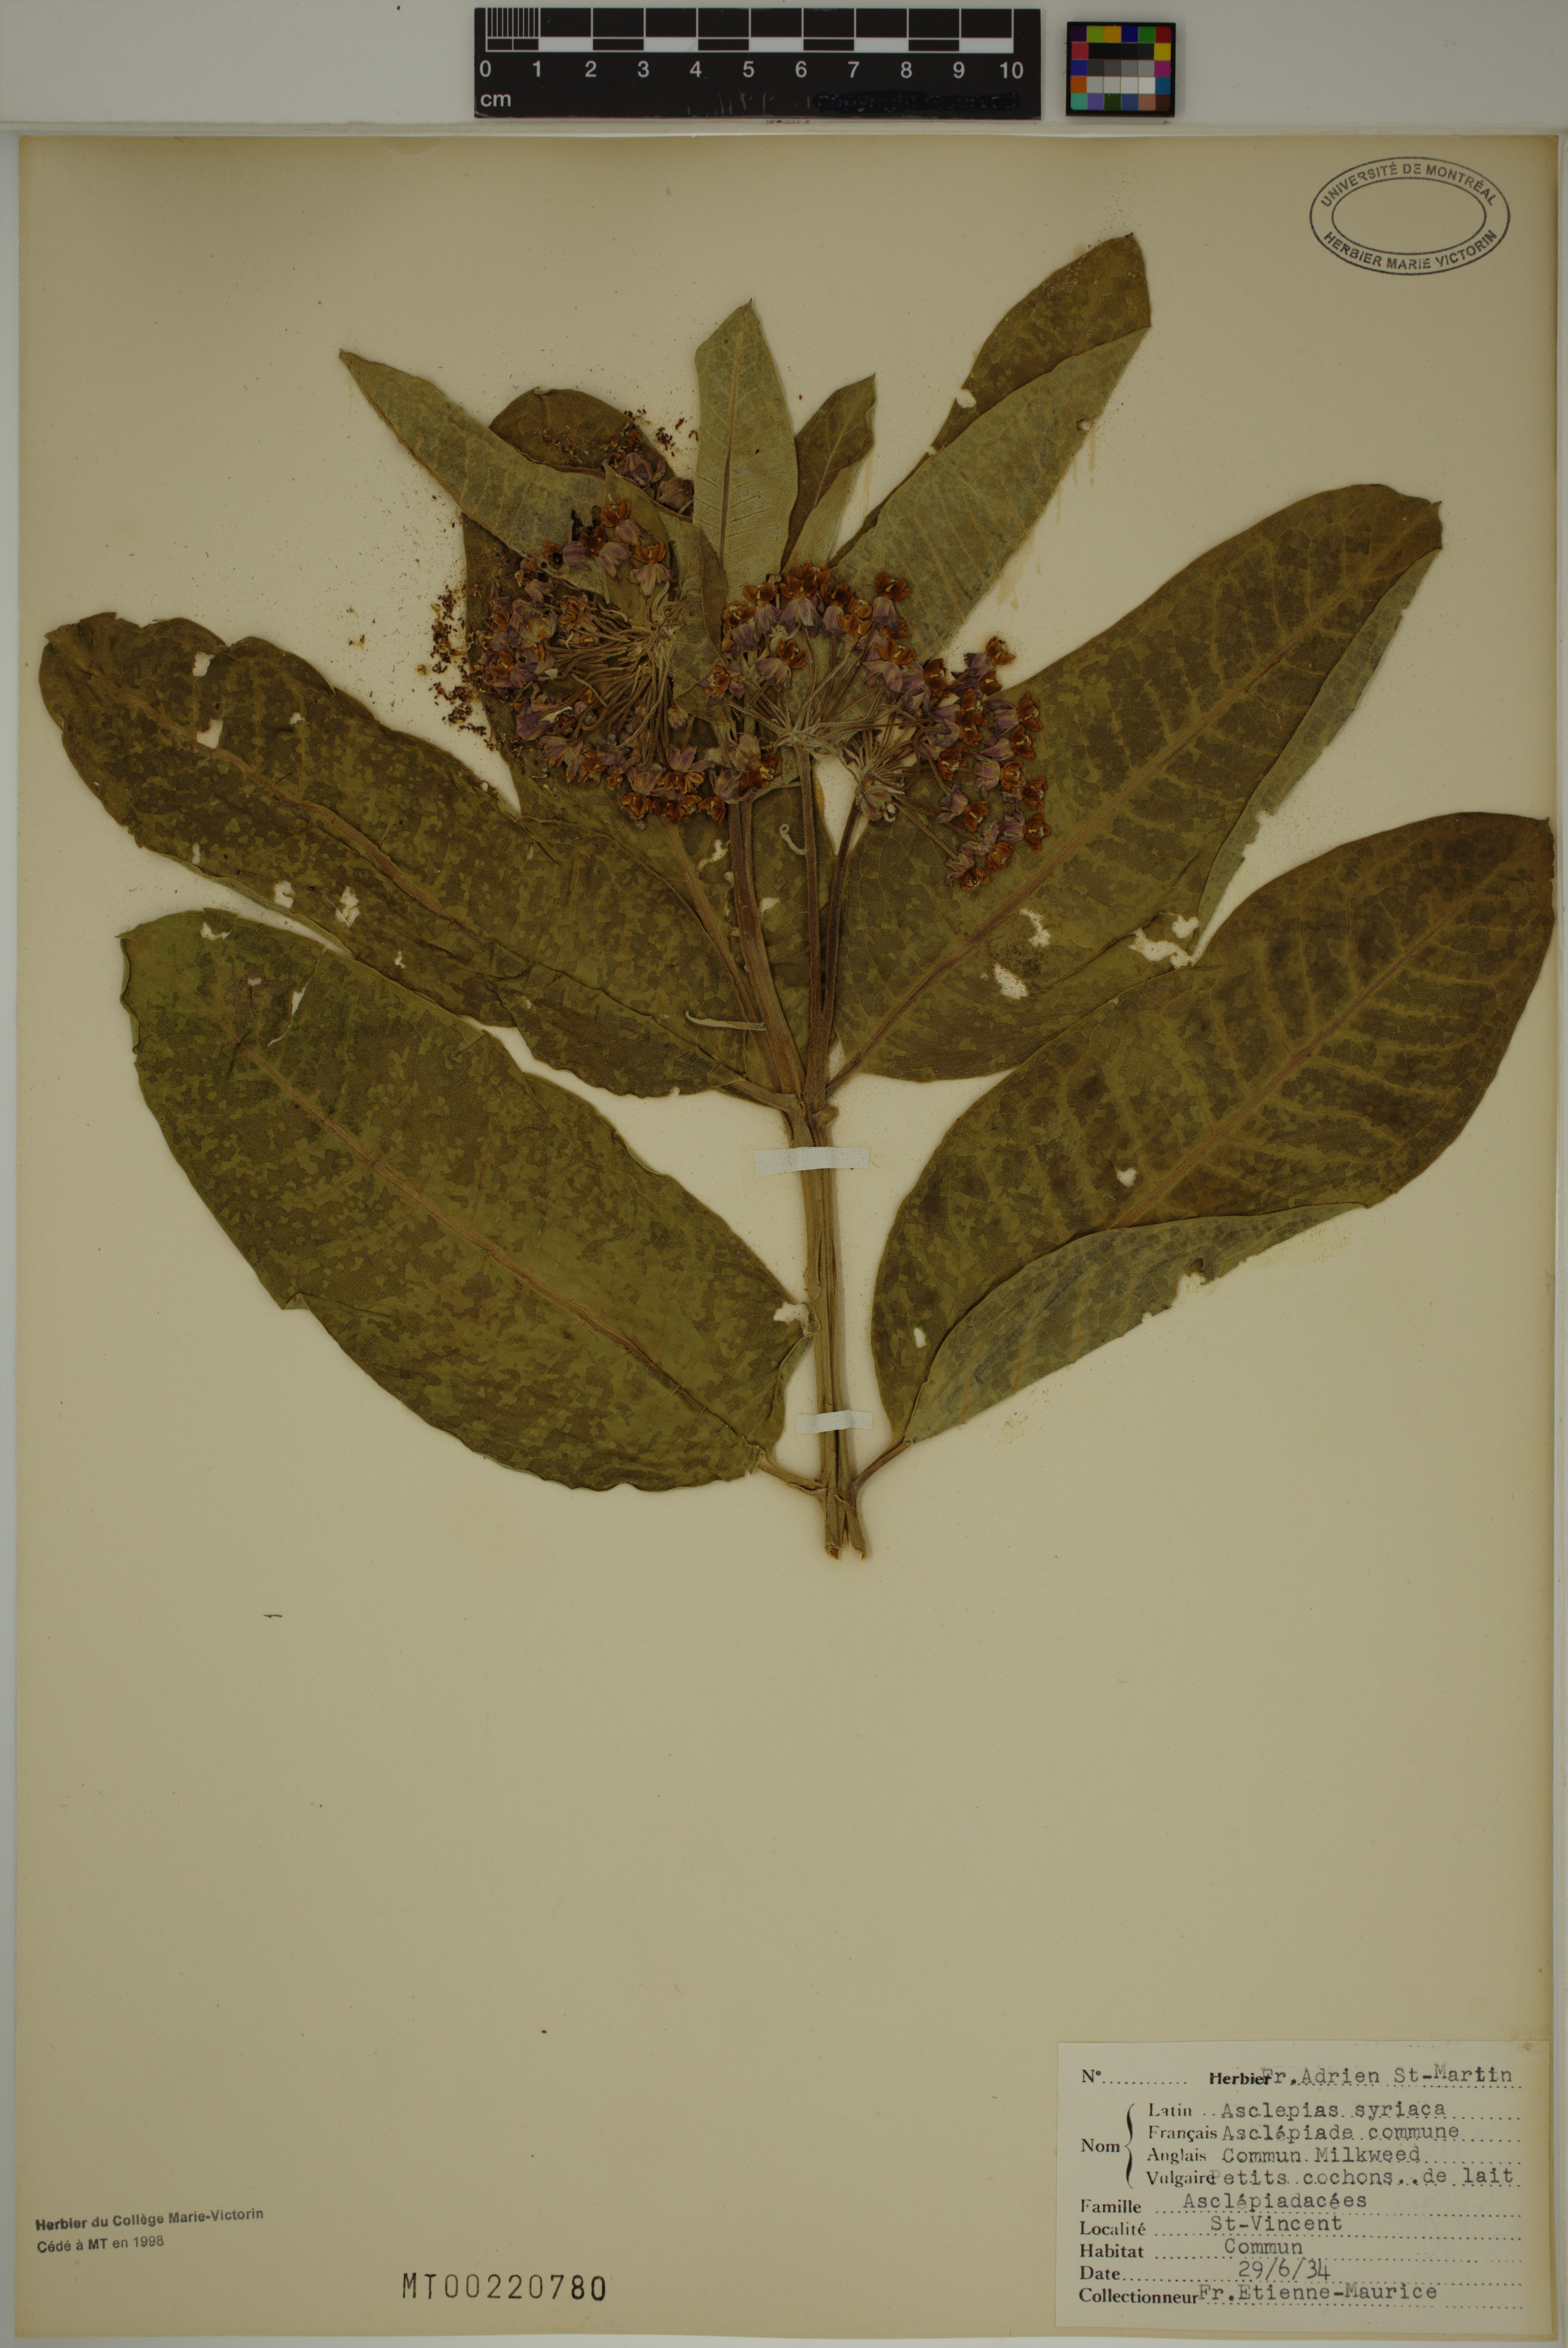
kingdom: Plantae
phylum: Tracheophyta
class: Magnoliopsida
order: Gentianales
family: Apocynaceae
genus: Asclepias
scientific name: Asclepias syriaca
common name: Common milkweed
